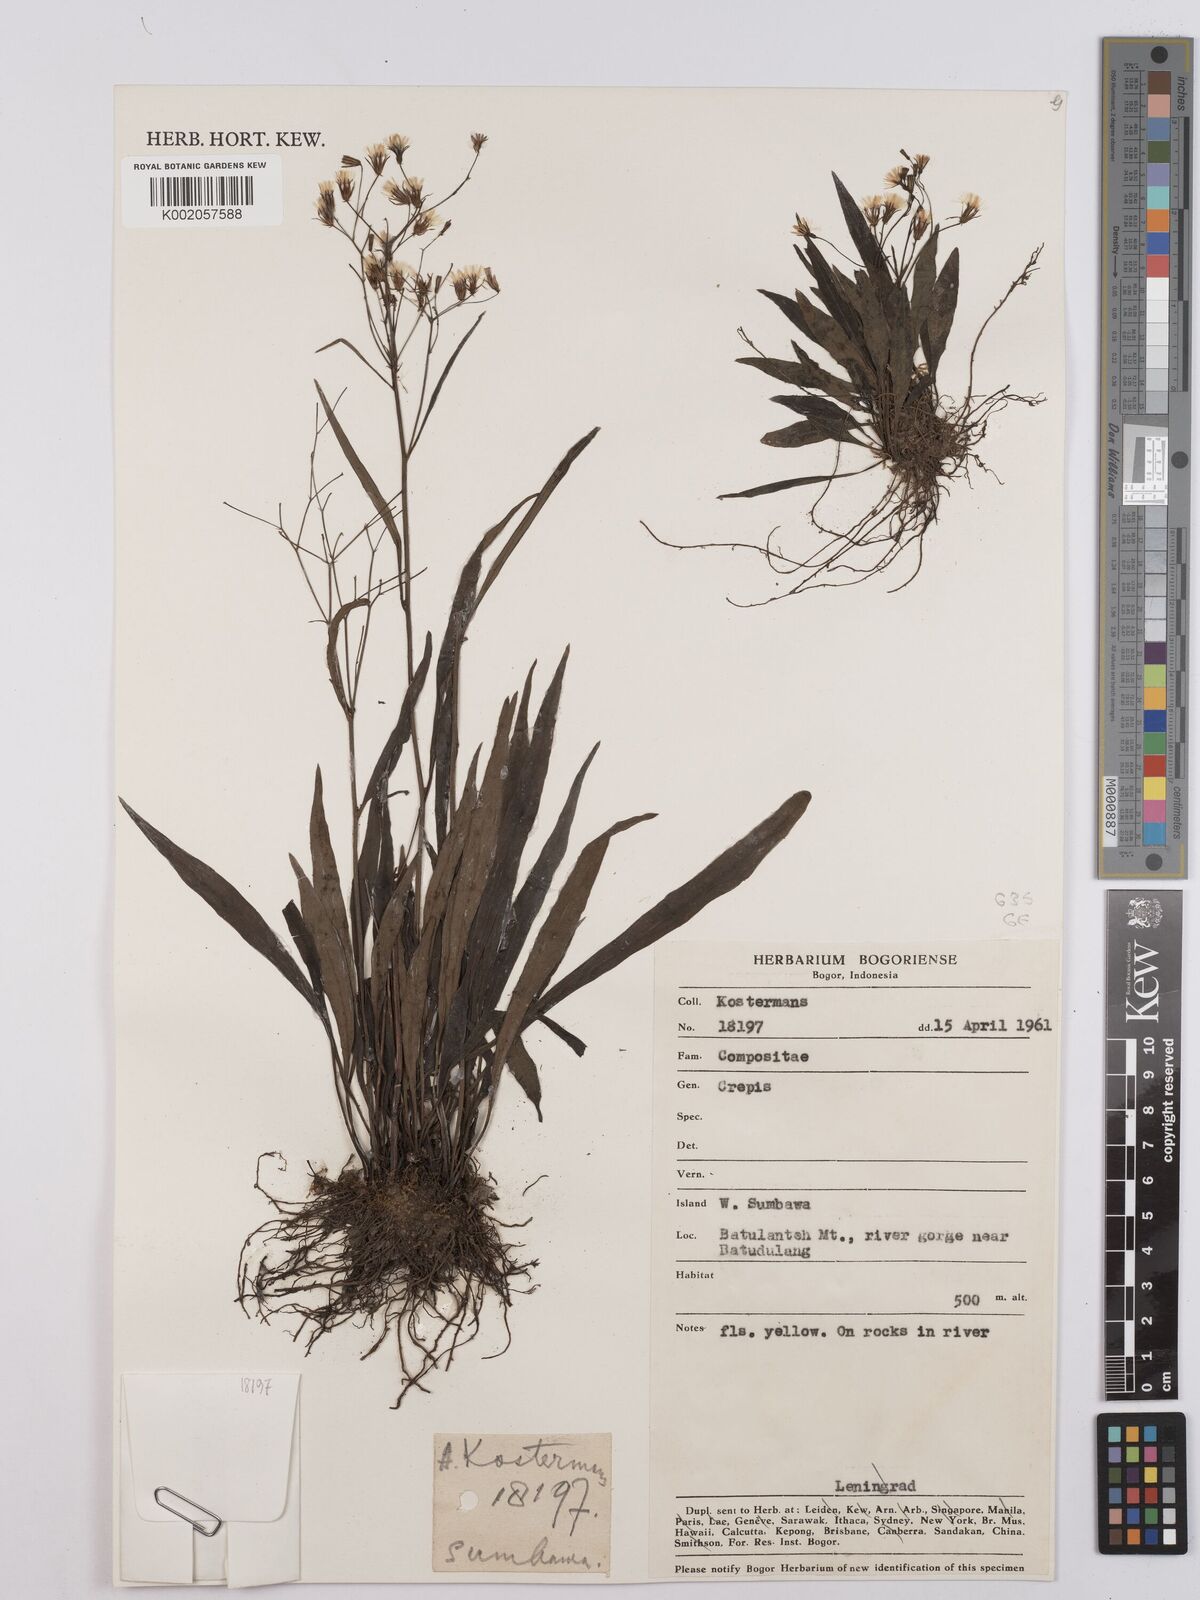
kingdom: Plantae
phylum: Tracheophyta
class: Magnoliopsida
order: Asterales
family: Asteraceae
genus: Crepis
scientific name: Crepis
